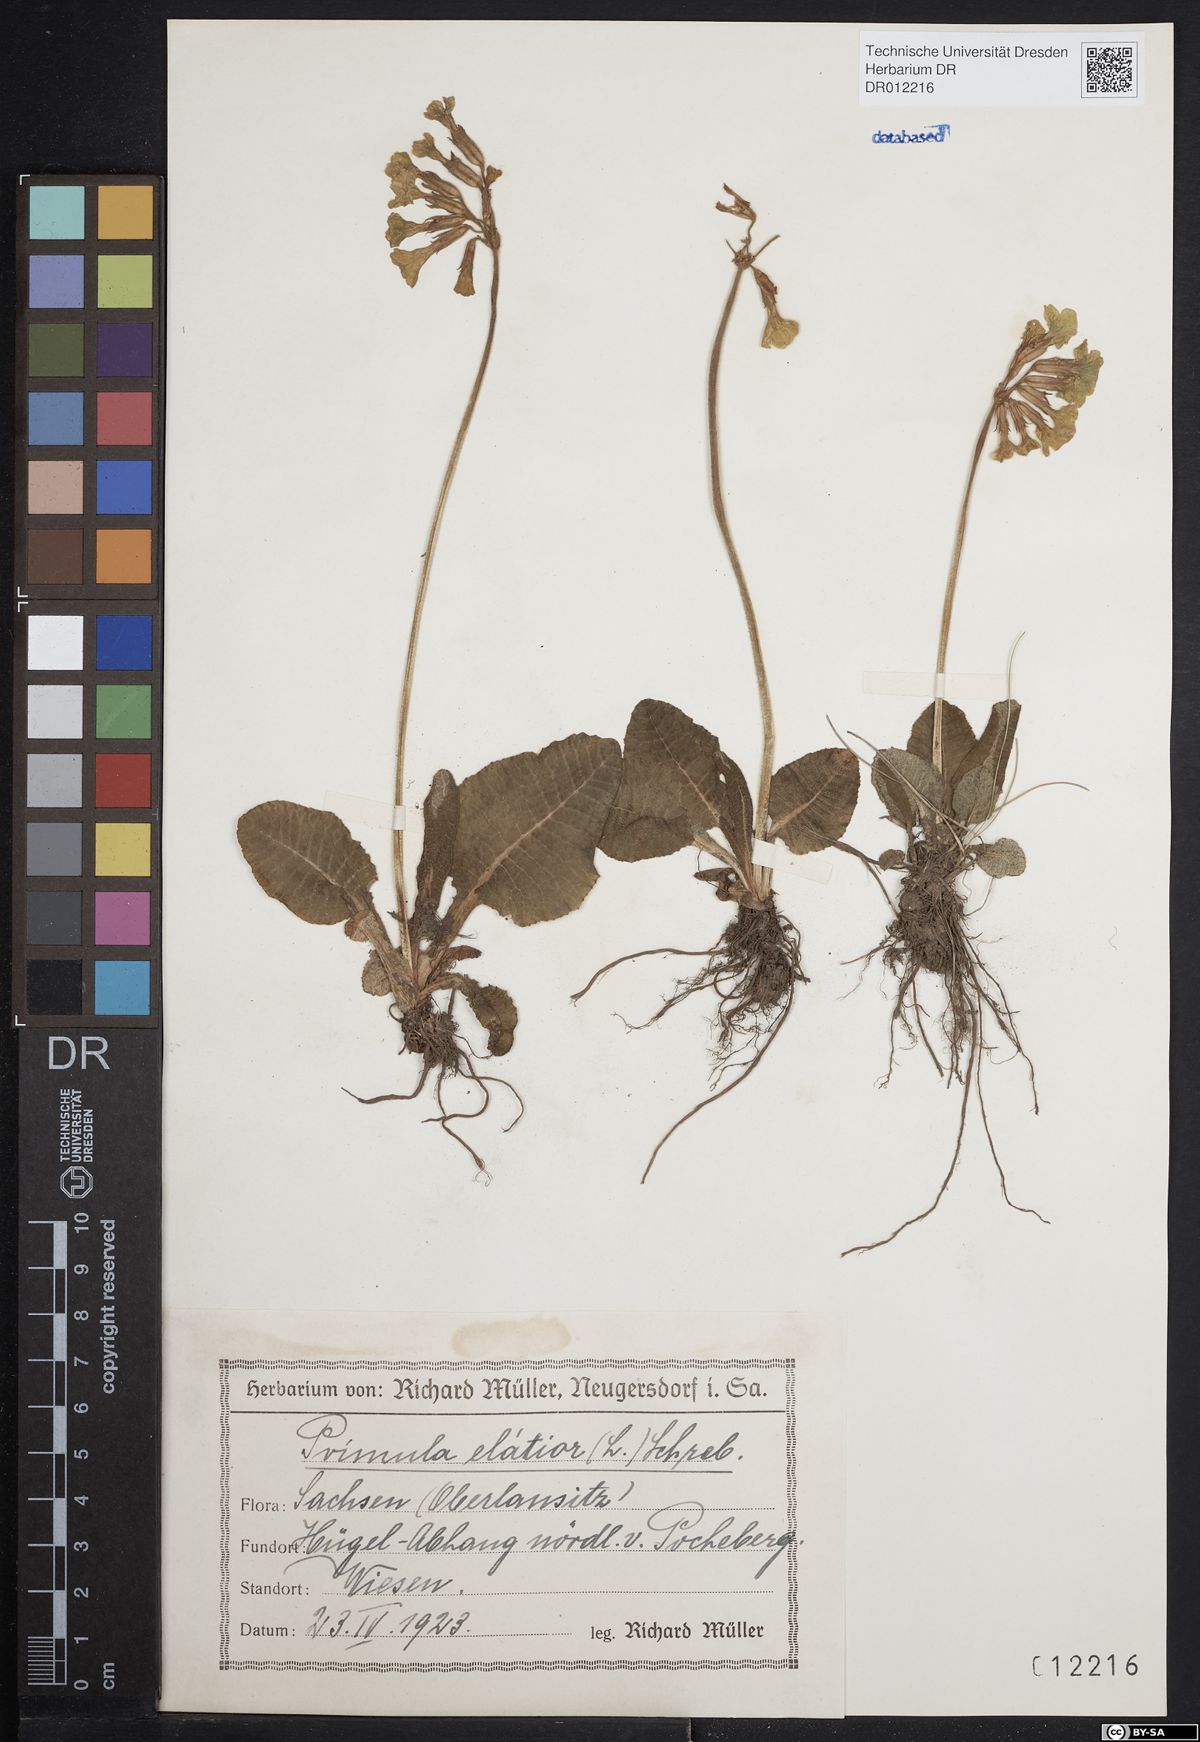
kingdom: Plantae
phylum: Tracheophyta
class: Magnoliopsida
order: Ericales
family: Primulaceae
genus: Primula
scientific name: Primula elatior
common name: Oxlip
